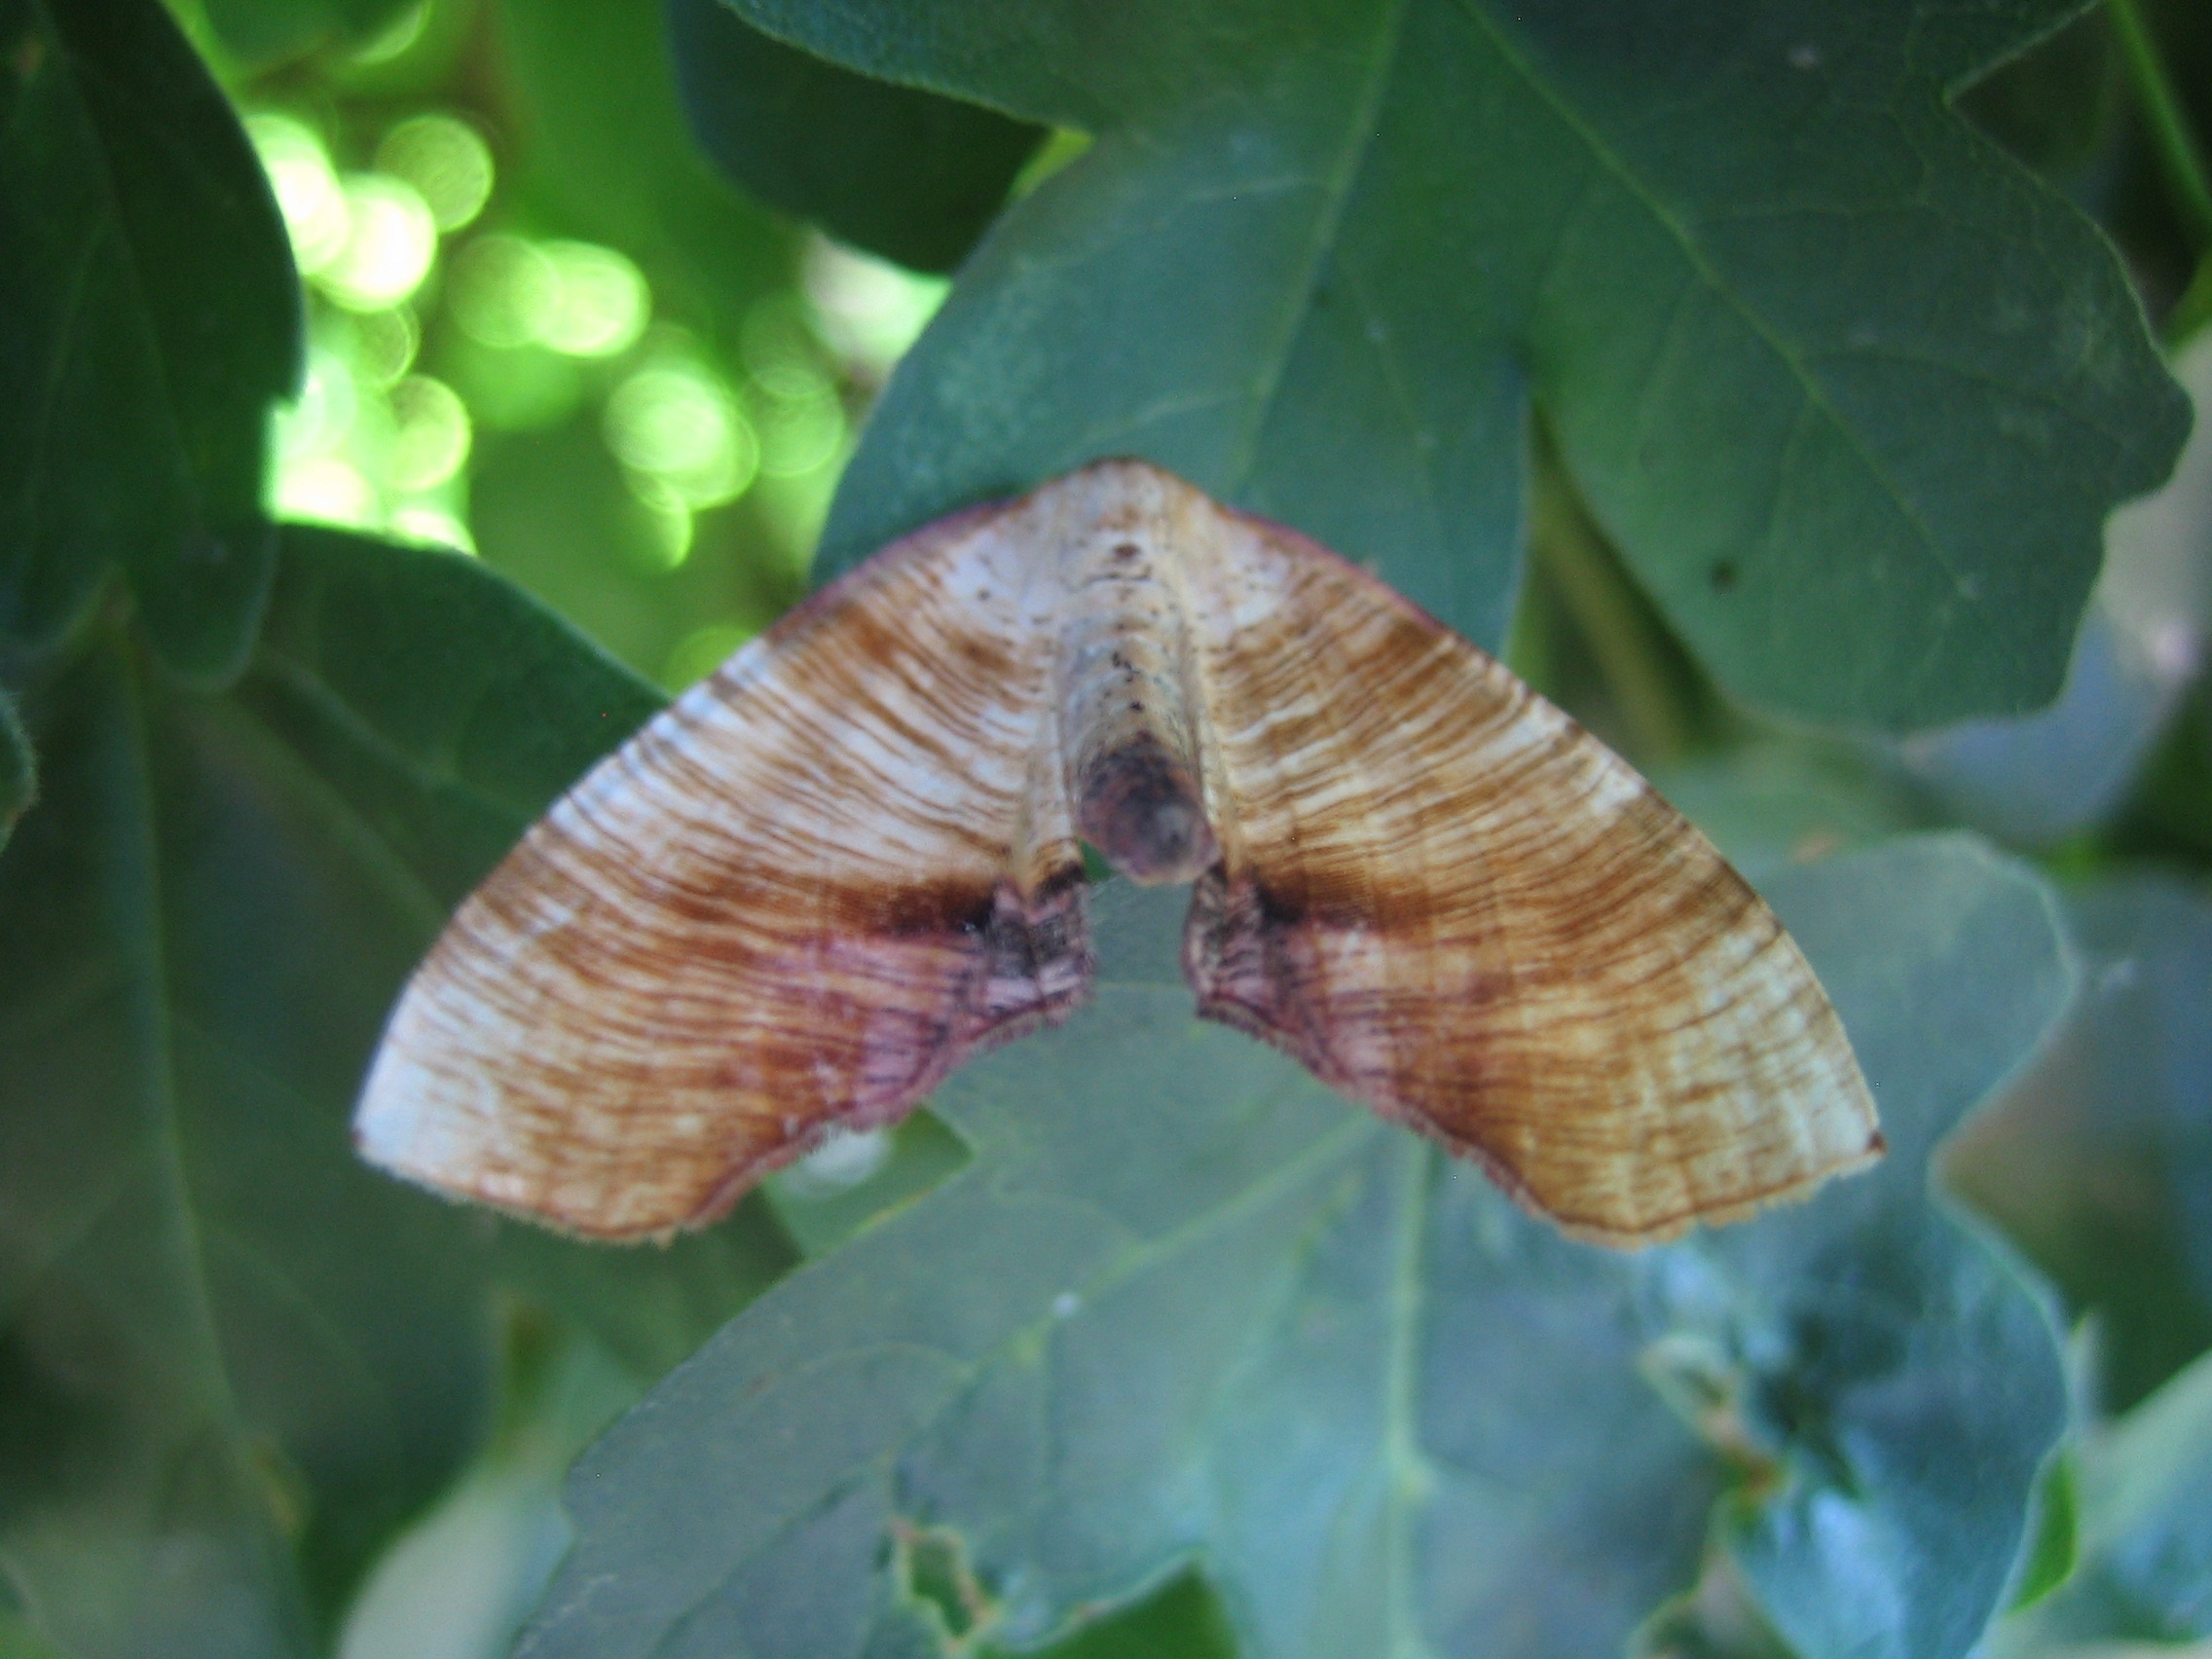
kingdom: Animalia
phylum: Arthropoda
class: Insecta
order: Lepidoptera
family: Geometridae
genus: Plagodis
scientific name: Plagodis dolabraria
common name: Smalvingemåler
